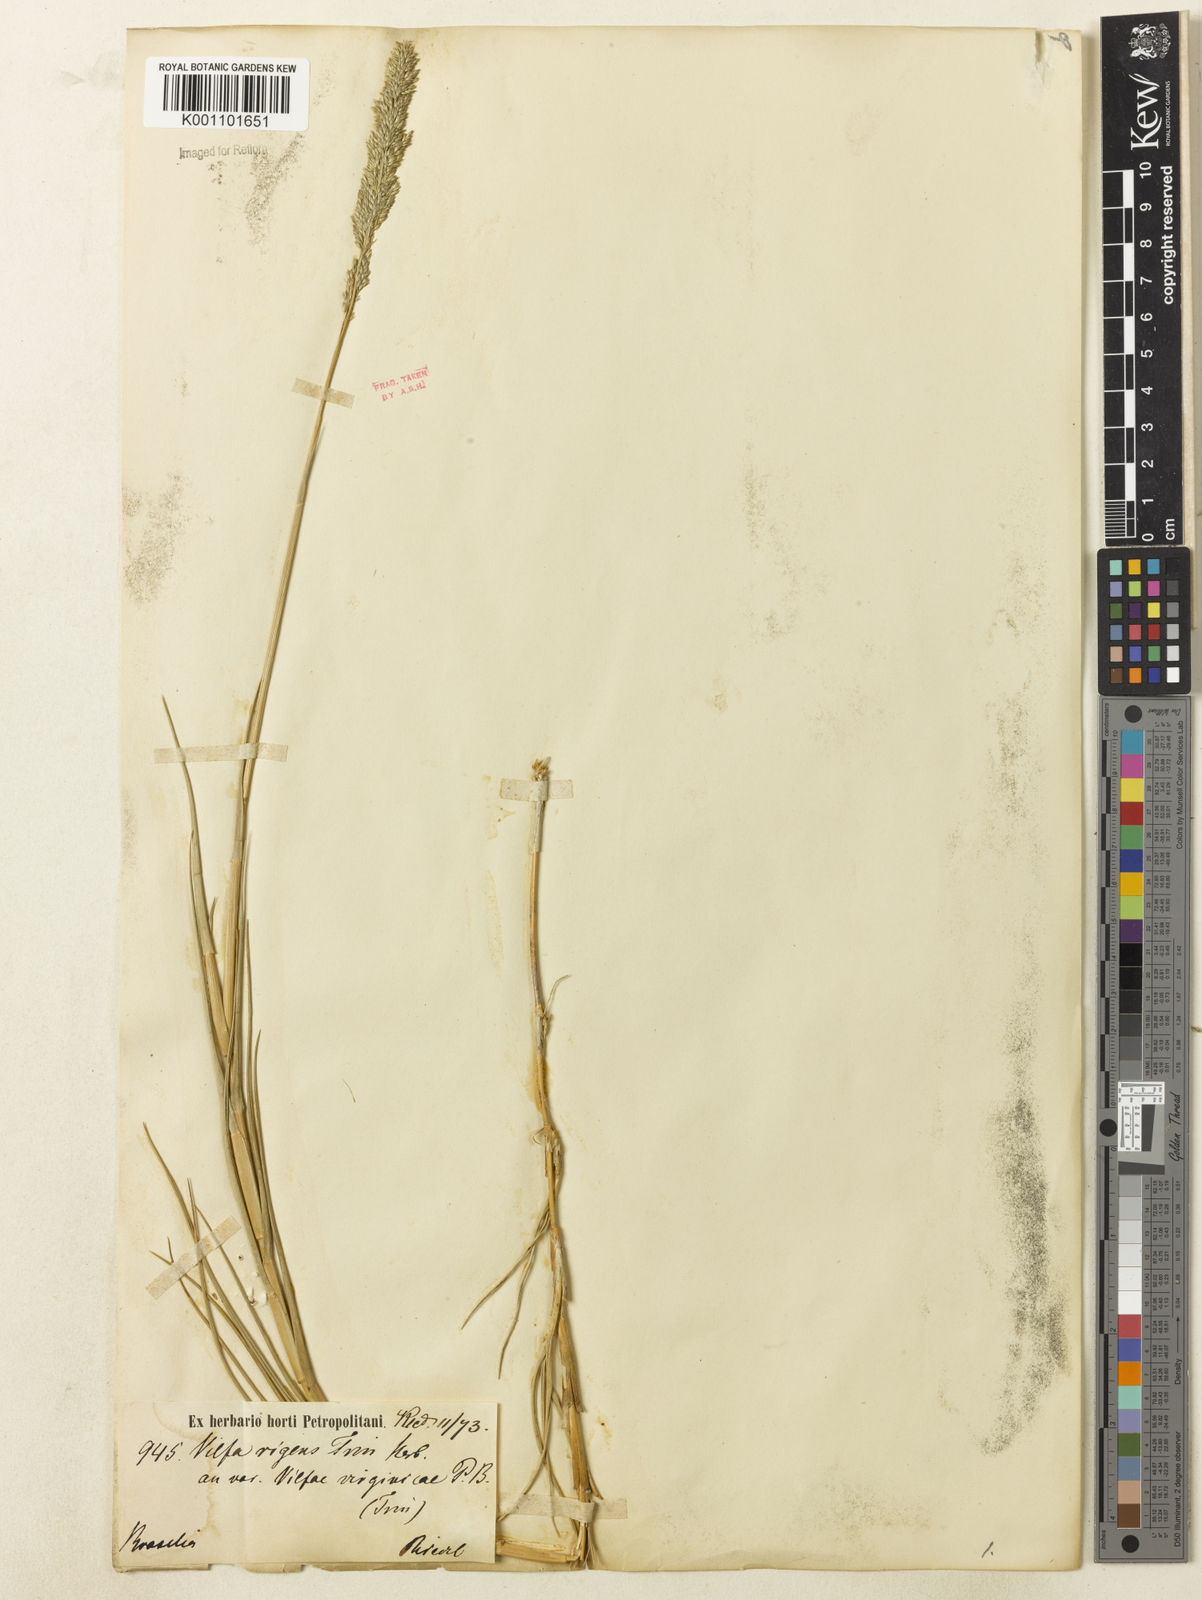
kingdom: Plantae
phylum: Tracheophyta
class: Liliopsida
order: Poales
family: Poaceae
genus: Sporobolus
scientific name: Sporobolus virginicus
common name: Beach dropseed
